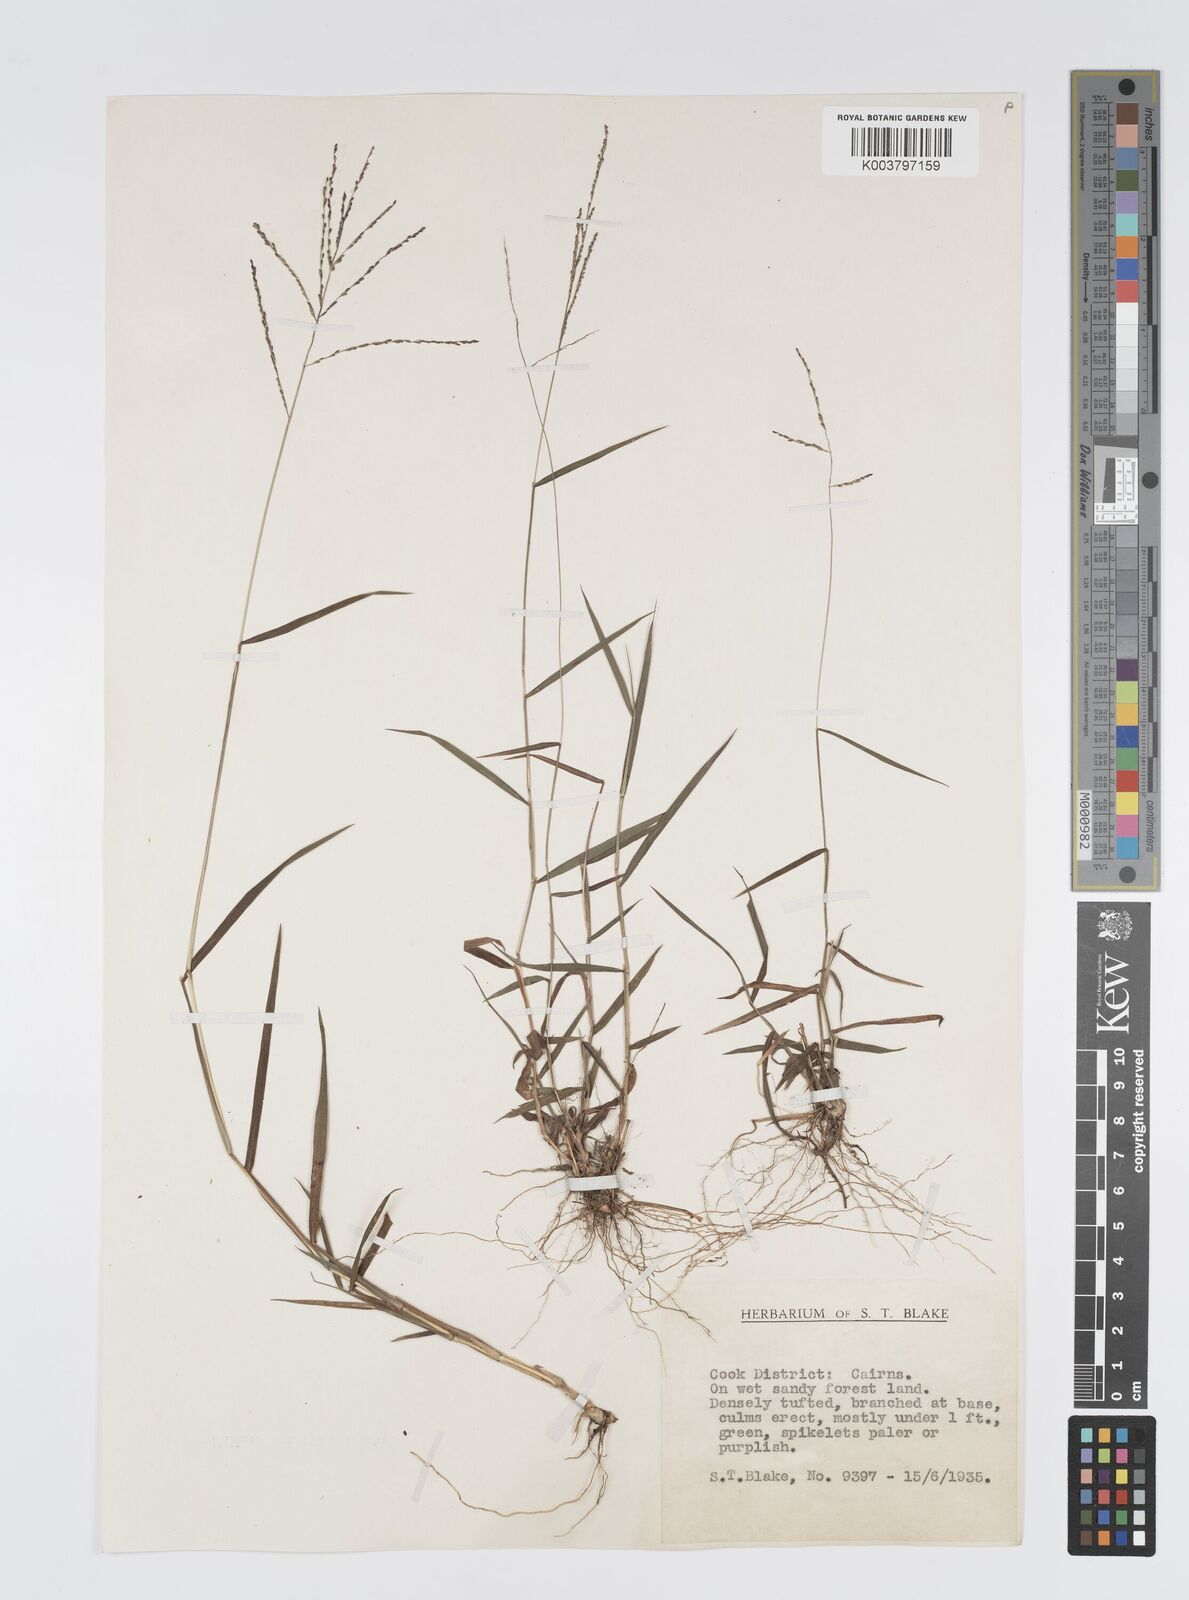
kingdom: Plantae
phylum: Tracheophyta
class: Liliopsida
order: Poales
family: Poaceae
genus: Digitaria
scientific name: Digitaria spec
